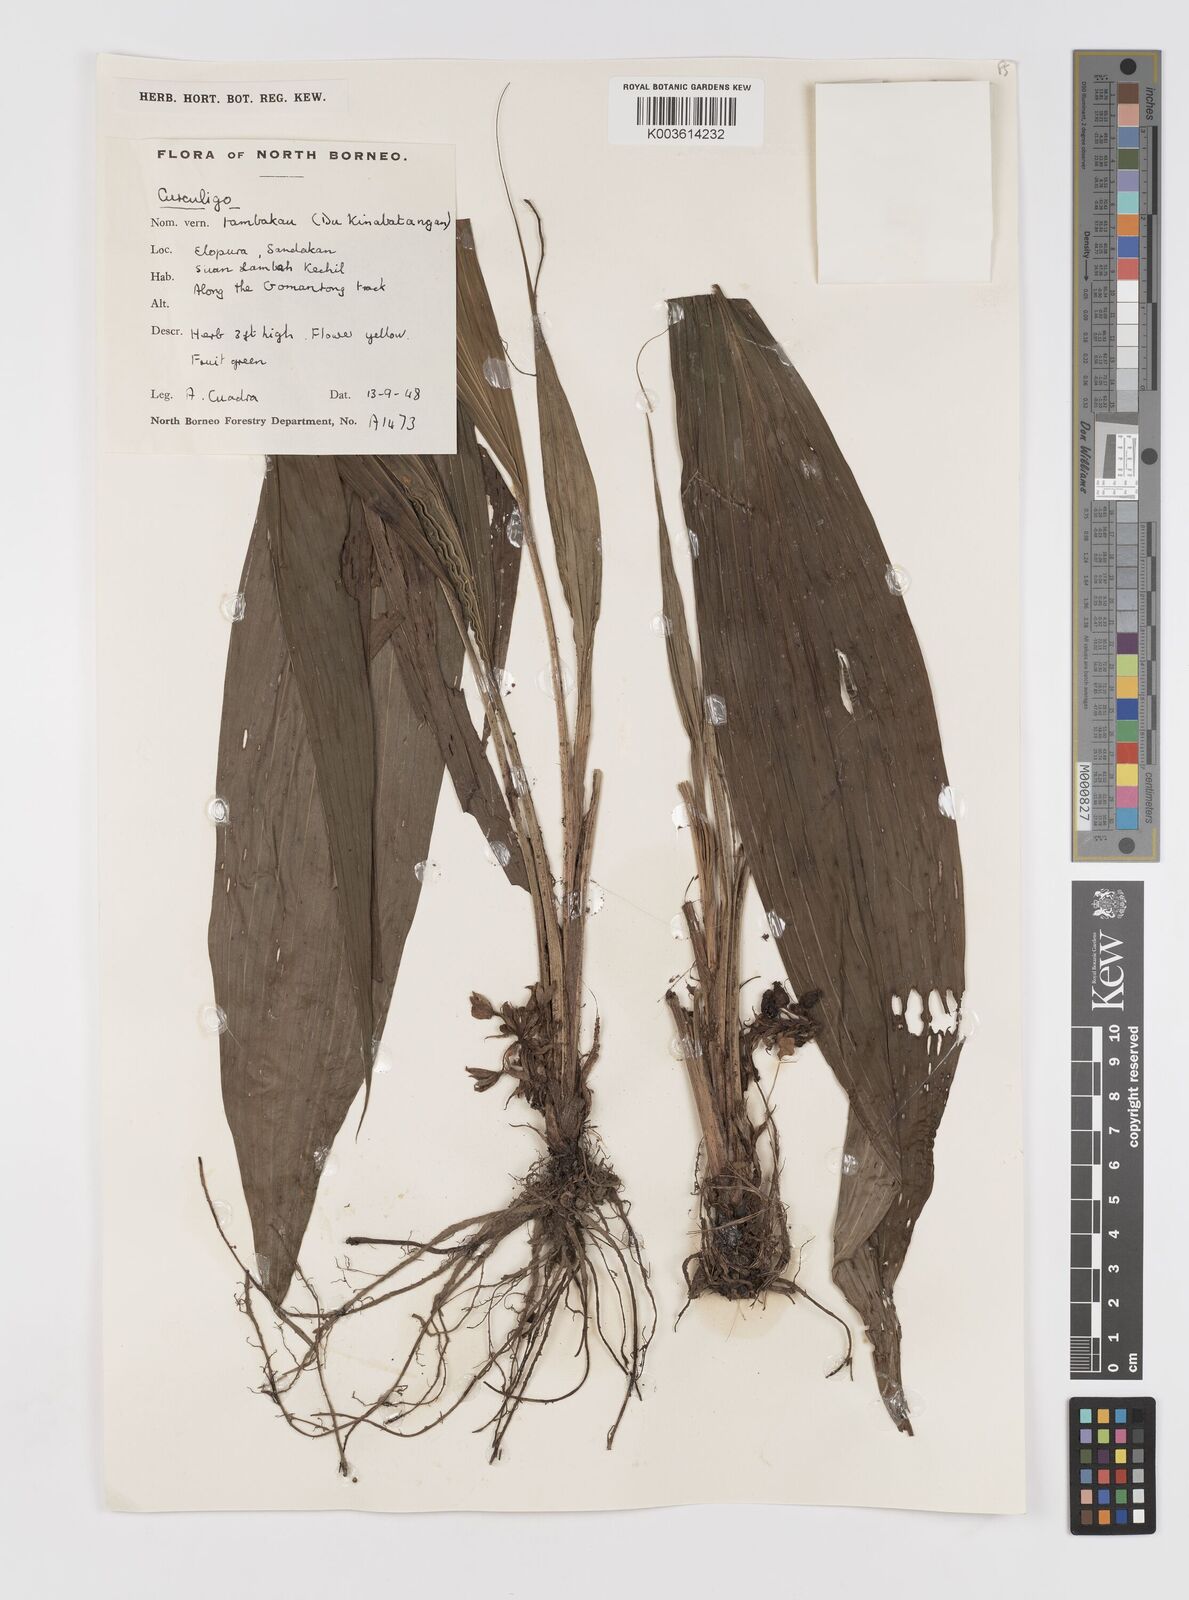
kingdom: Plantae
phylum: Tracheophyta
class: Liliopsida
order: Asparagales
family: Hypoxidaceae
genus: Curculigo
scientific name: Curculigo
